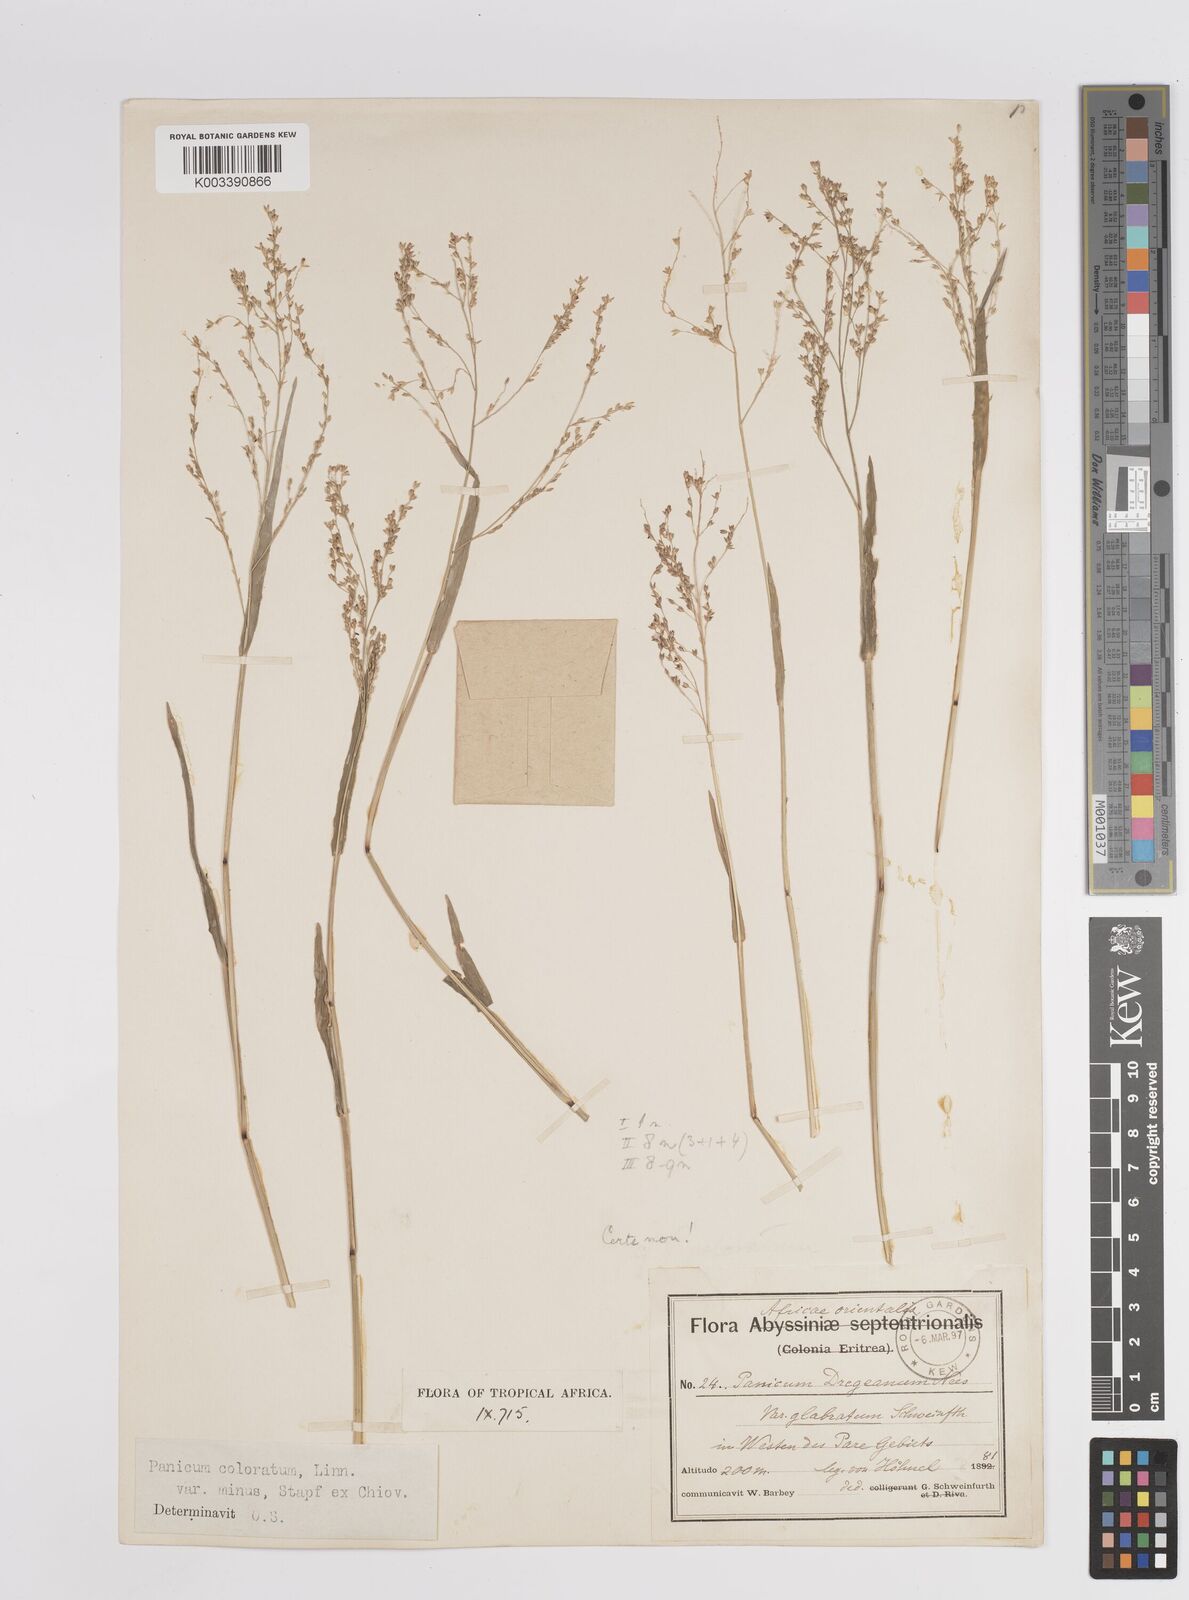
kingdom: Plantae
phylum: Tracheophyta
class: Liliopsida
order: Poales
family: Poaceae
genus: Panicum
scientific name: Panicum coloratum
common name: Kleingrass
